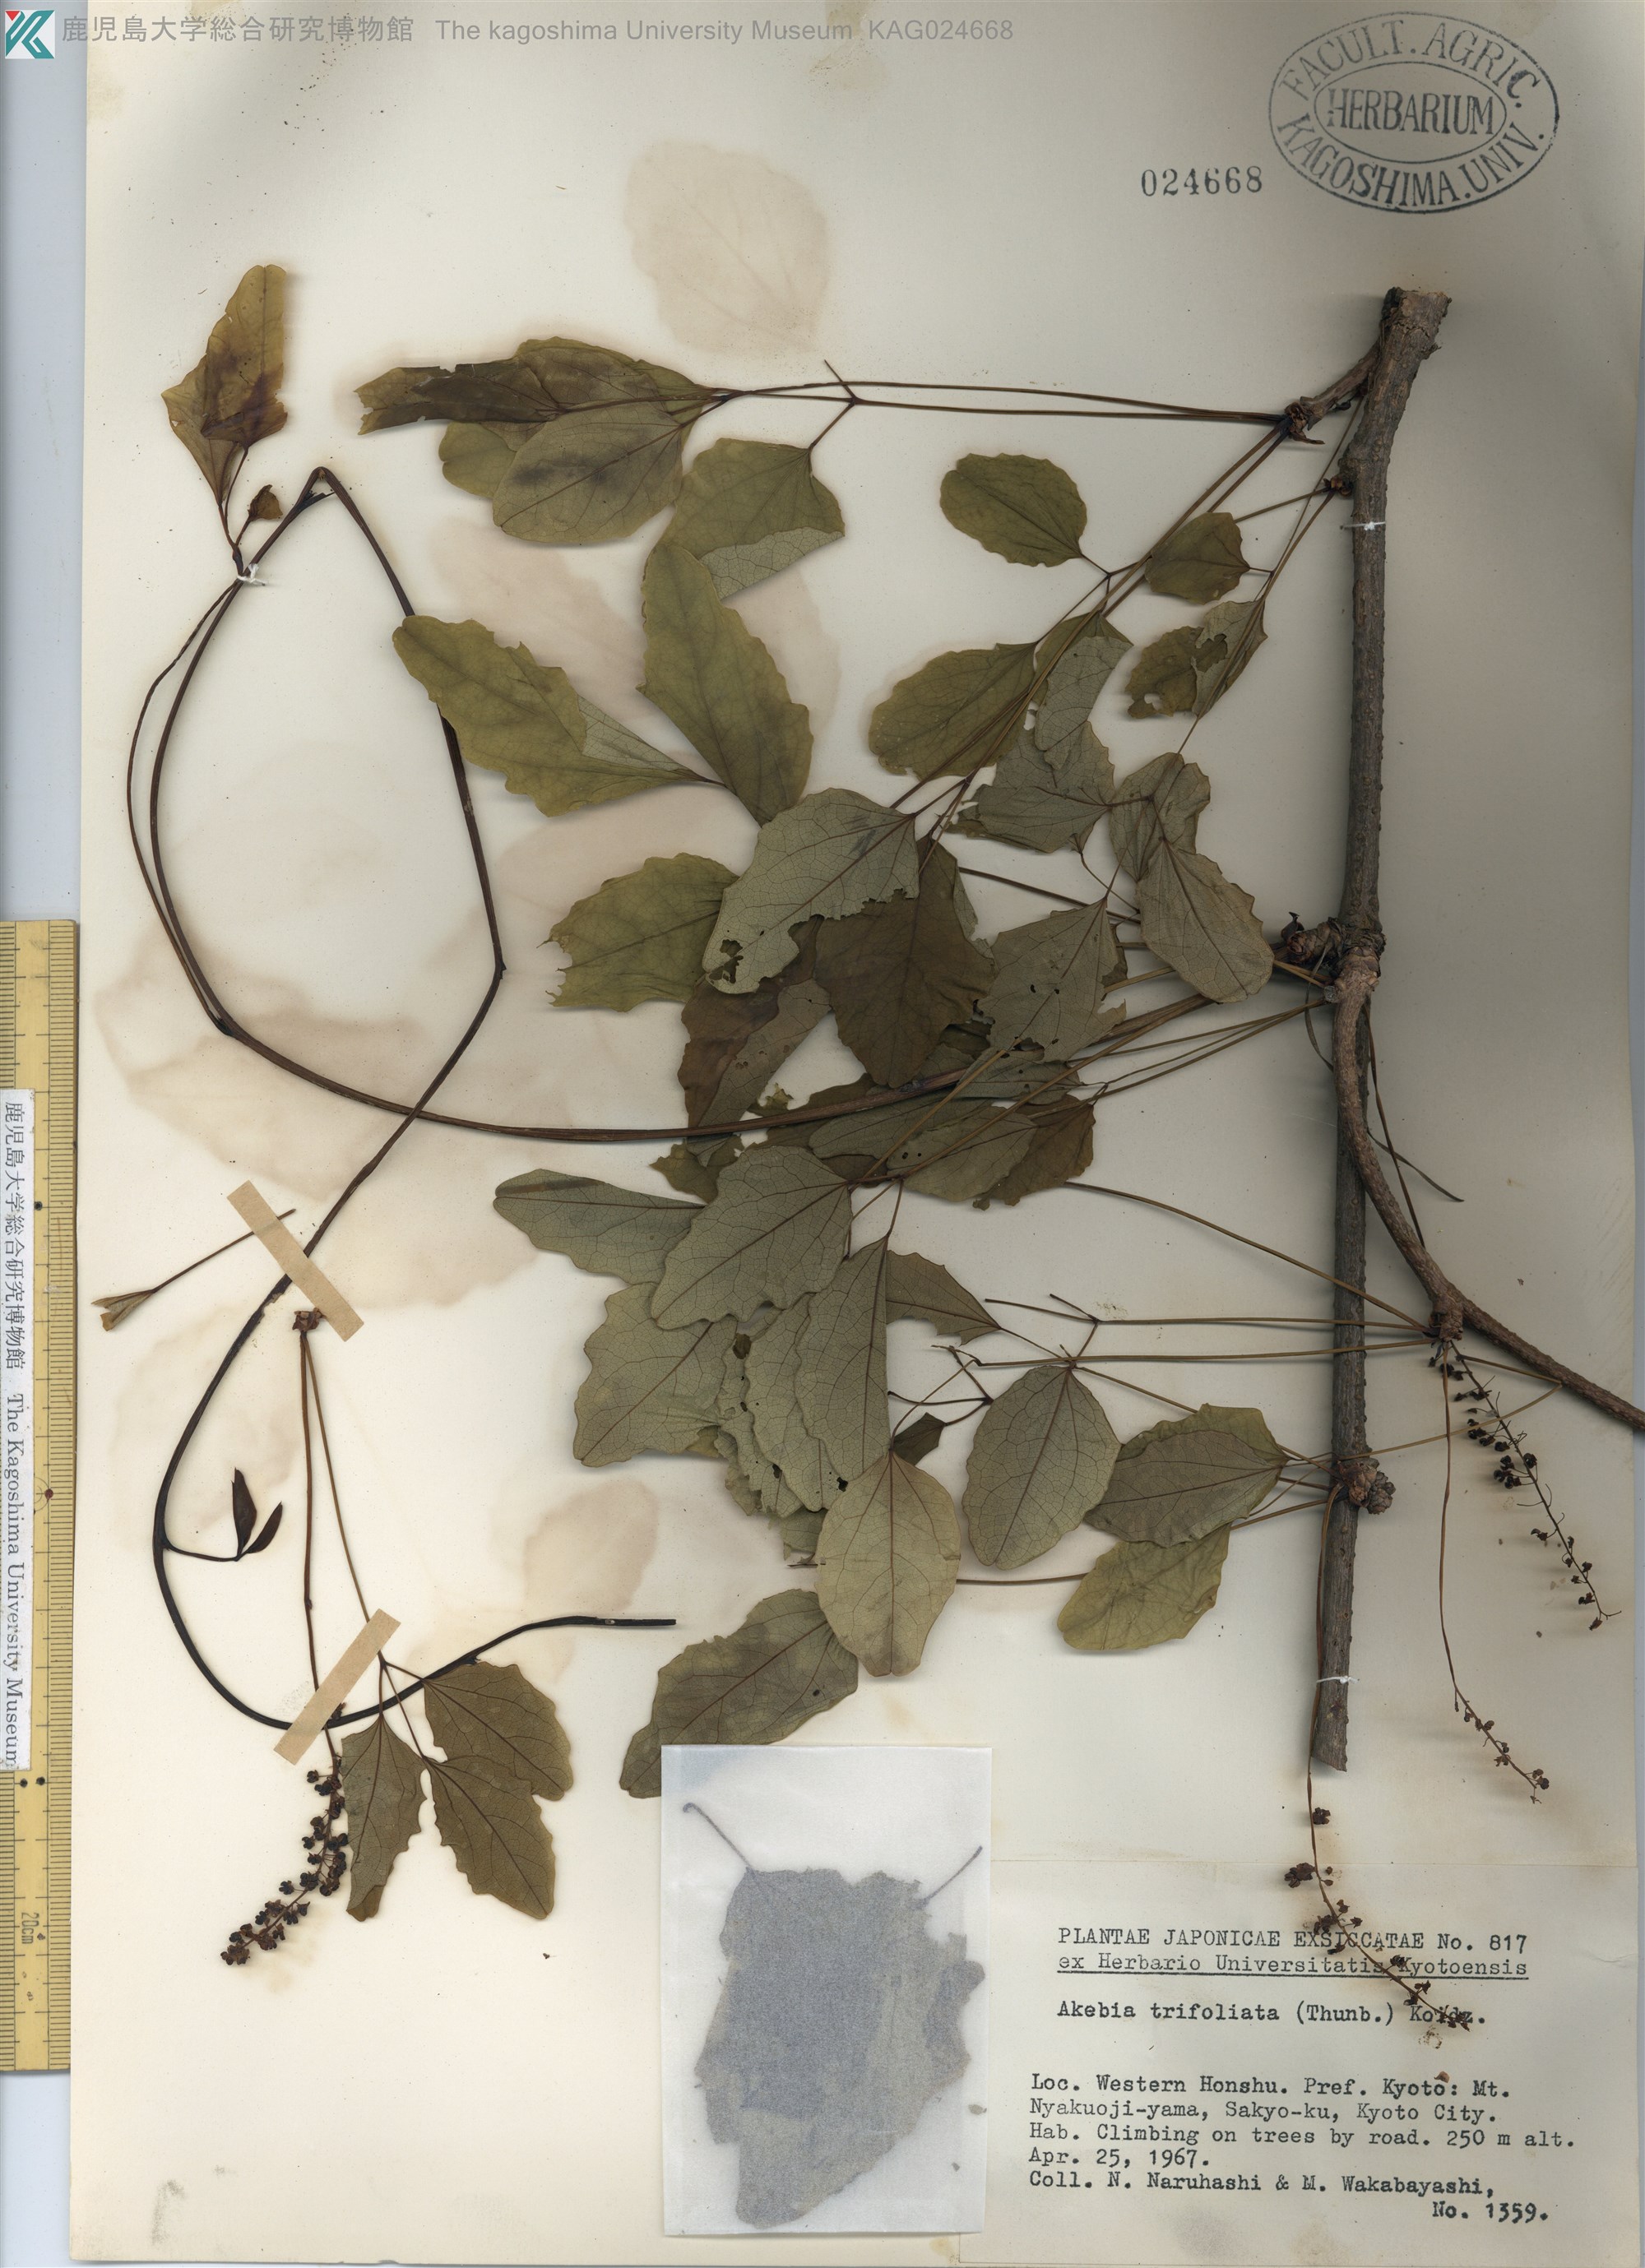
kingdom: Plantae
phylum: Tracheophyta
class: Magnoliopsida
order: Ranunculales
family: Lardizabalaceae
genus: Akebia
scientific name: Akebia trifoliata
